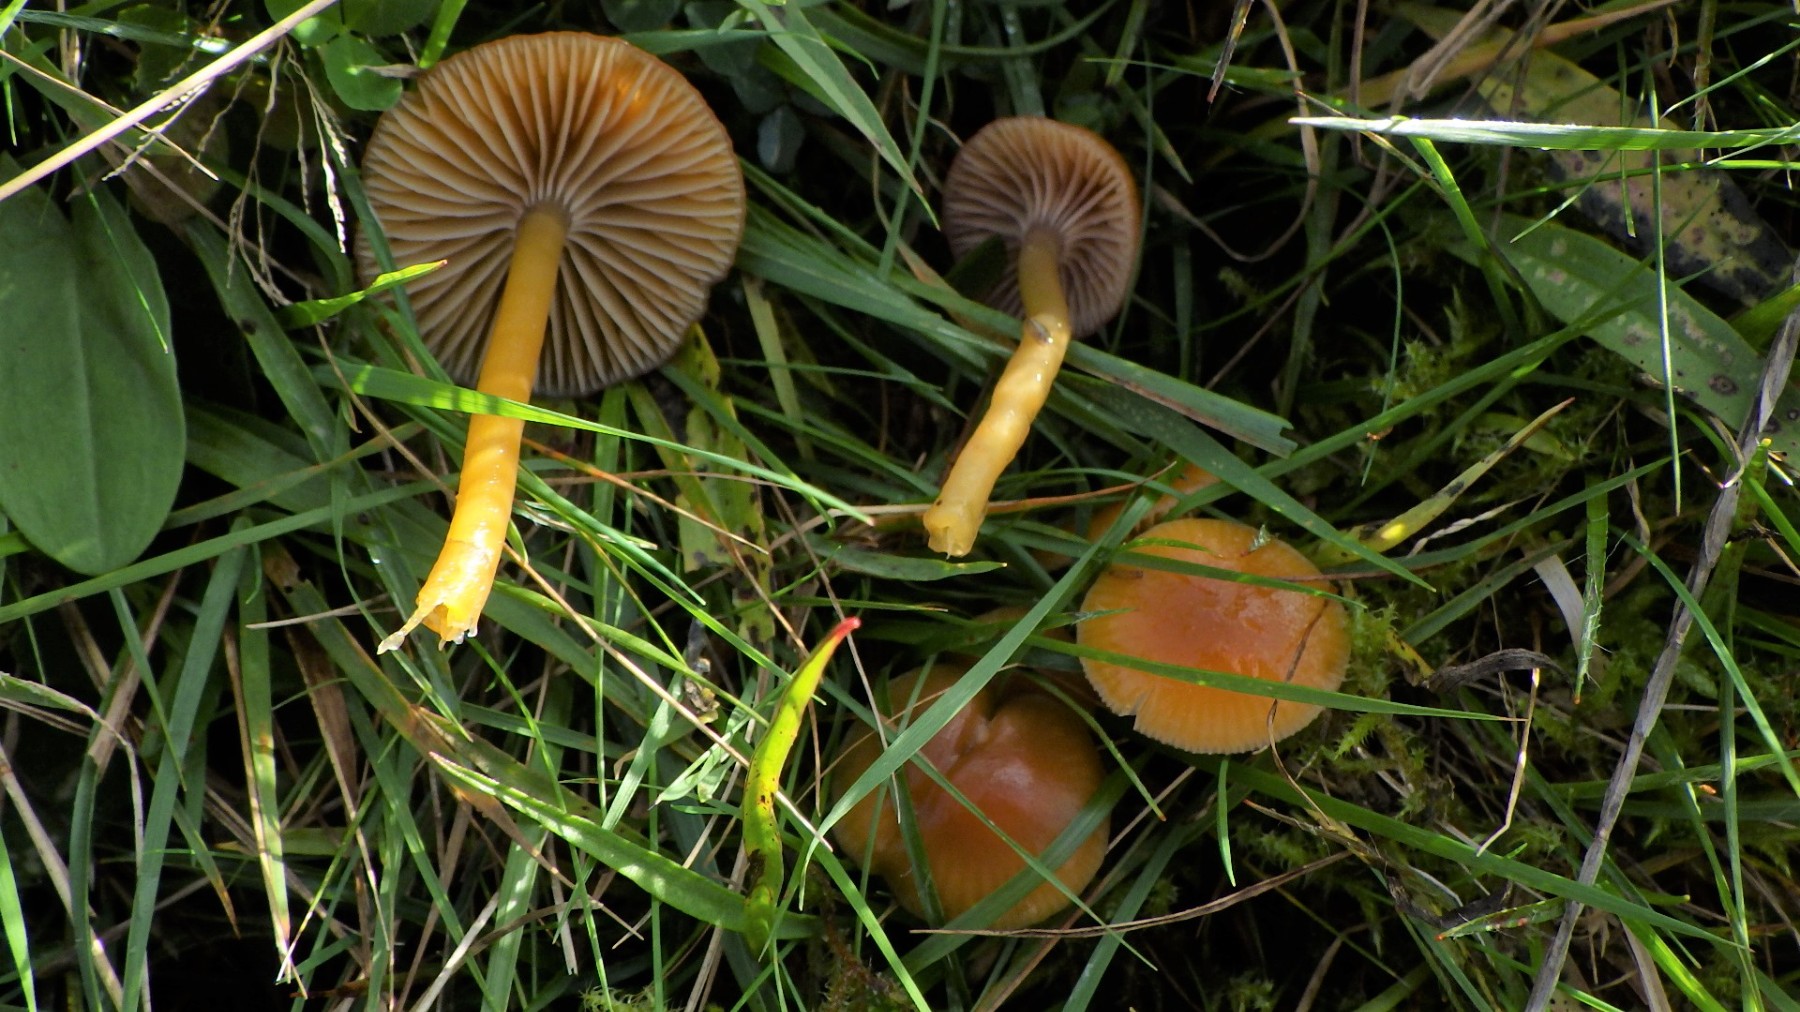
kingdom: Fungi
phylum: Basidiomycota
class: Agaricomycetes
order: Agaricales
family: Hygrophoraceae
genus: Gliophorus
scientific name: Gliophorus laetus
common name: brusk-vokshat
